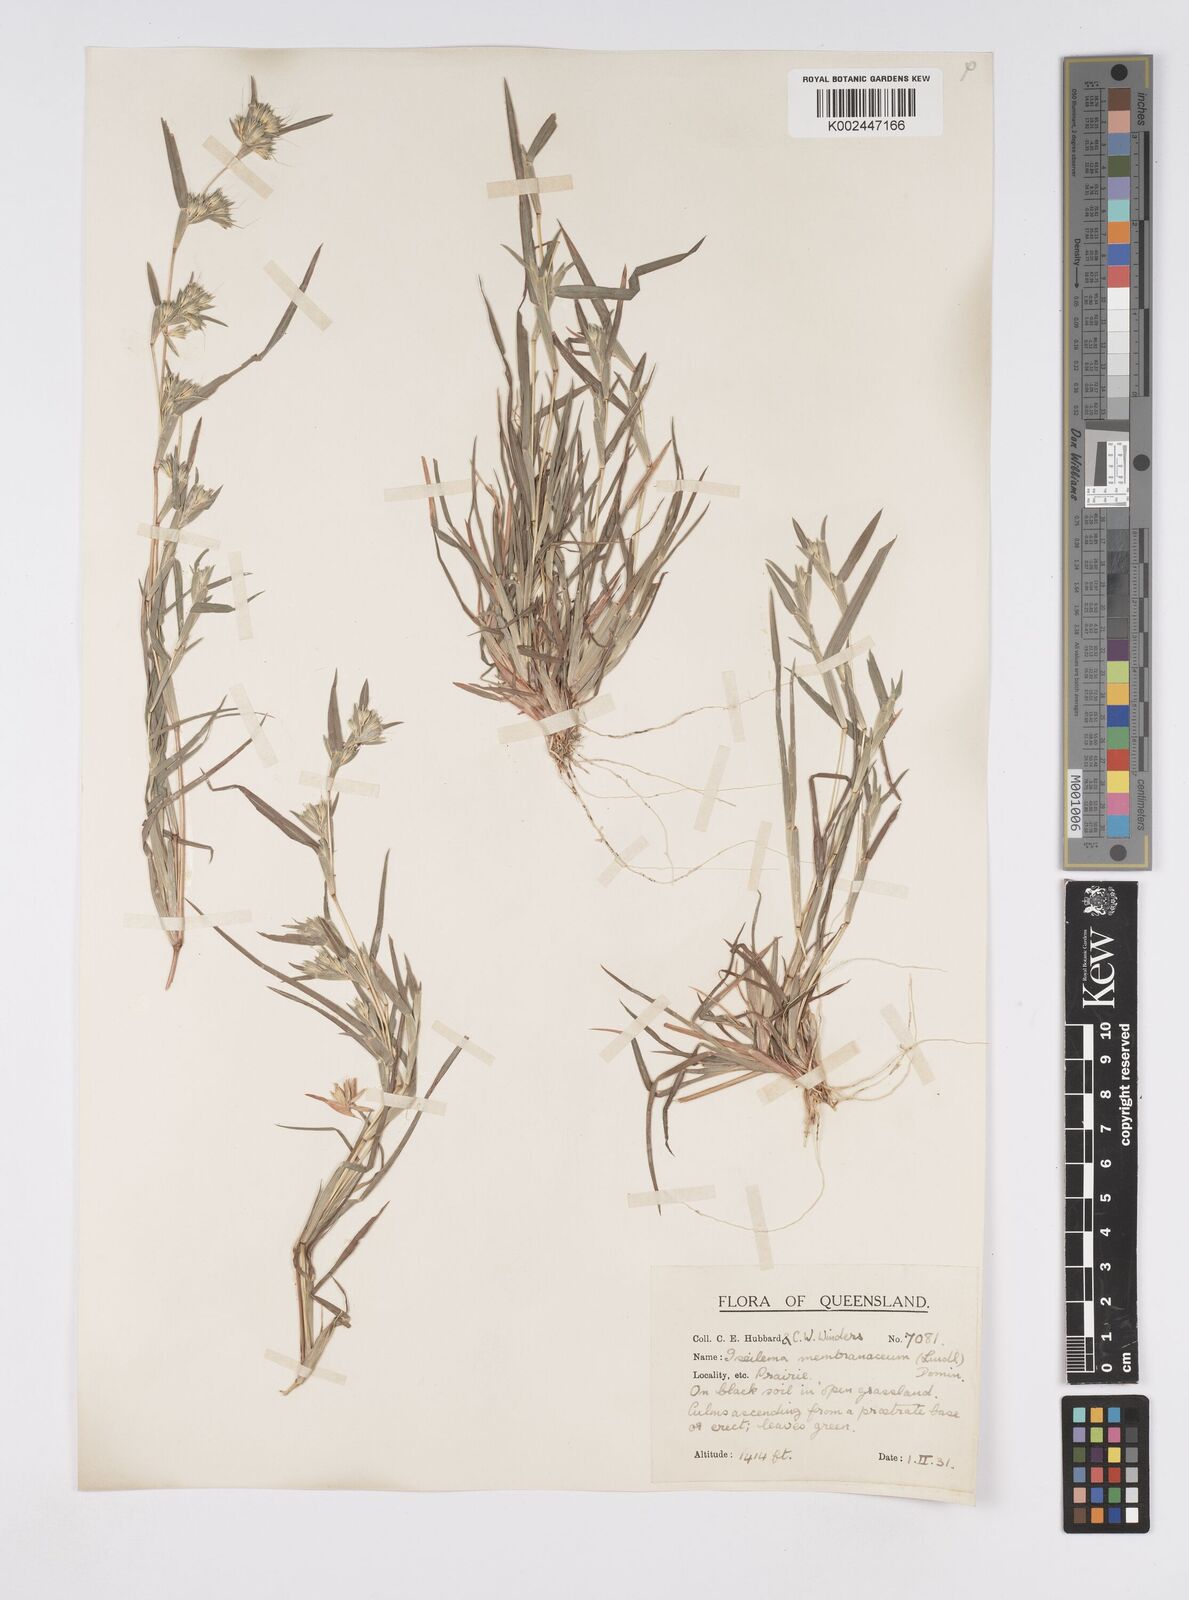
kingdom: Plantae
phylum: Tracheophyta
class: Liliopsida
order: Poales
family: Poaceae
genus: Iseilema
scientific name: Iseilema membranaceum
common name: Small flinders grass
